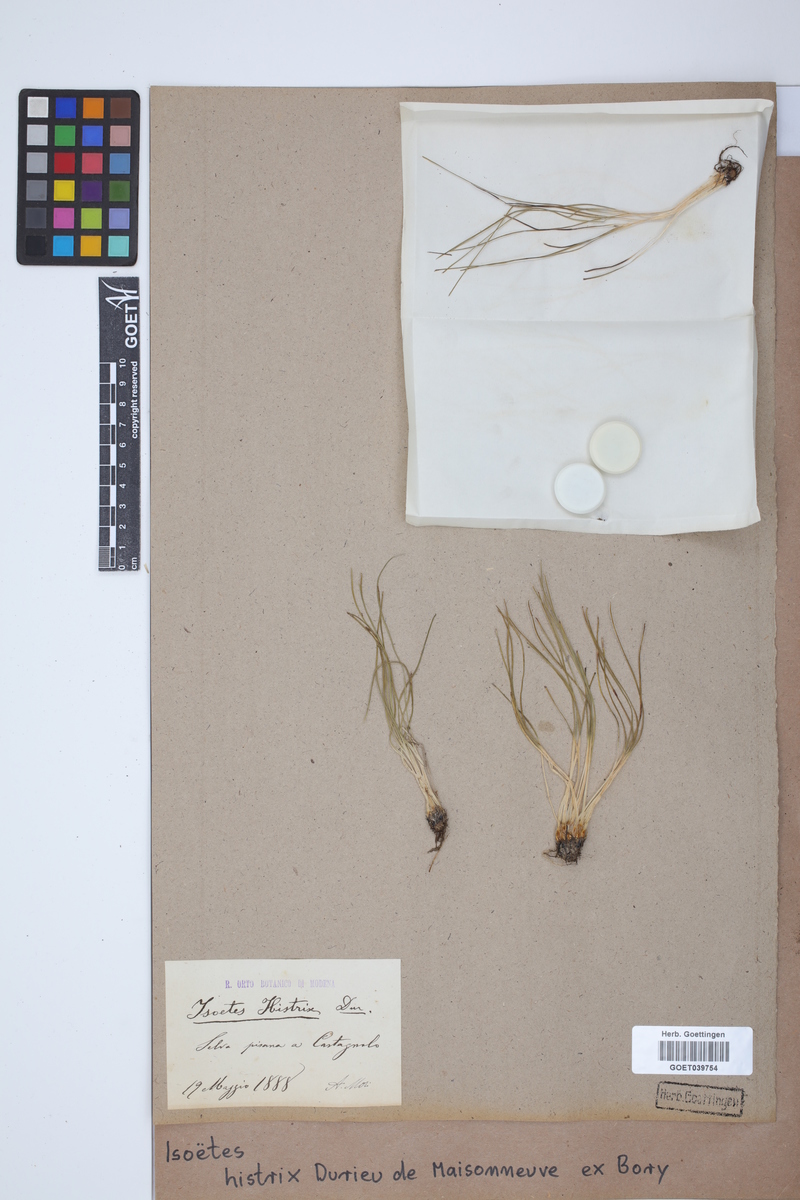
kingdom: Plantae
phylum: Tracheophyta
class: Lycopodiopsida
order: Isoetales
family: Isoetaceae
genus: Isoetes
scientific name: Isoetes histrix
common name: Land quillwort
